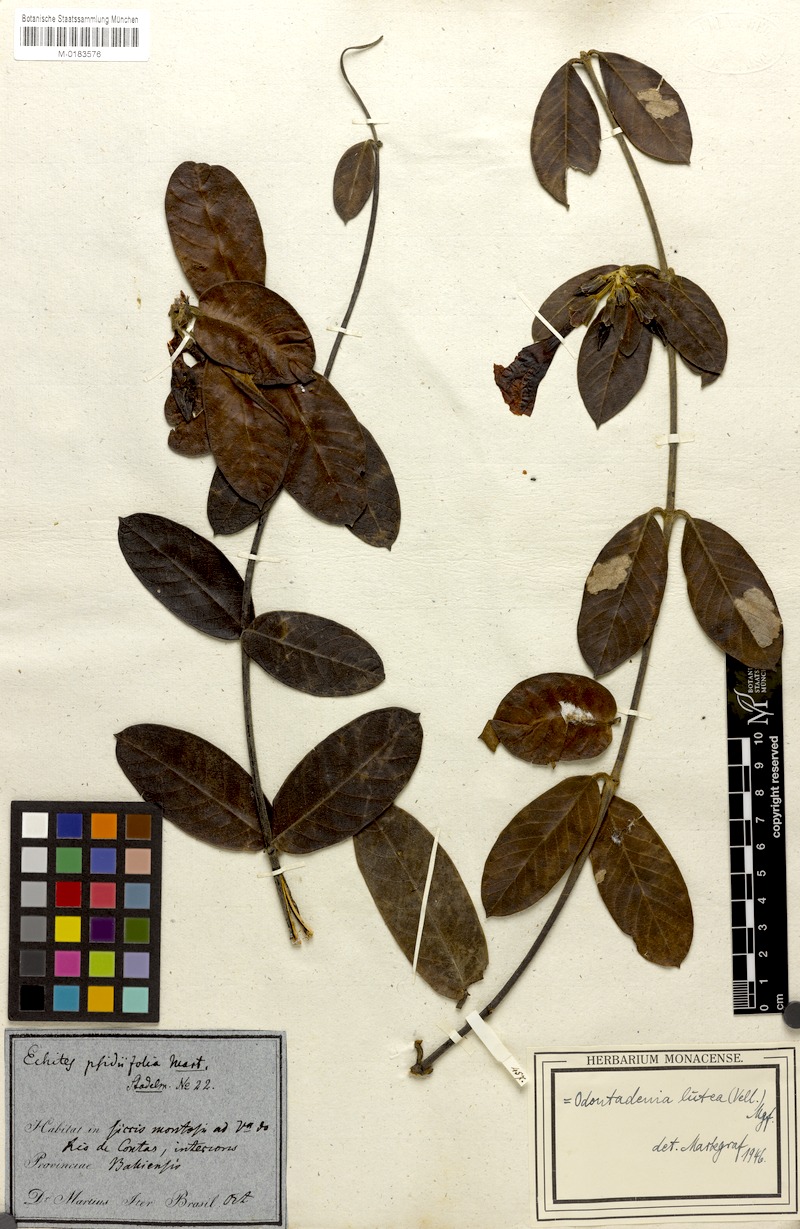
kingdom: Plantae
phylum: Tracheophyta
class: Magnoliopsida
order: Gentianales
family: Apocynaceae
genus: Odontadenia
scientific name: Odontadenia lutea
